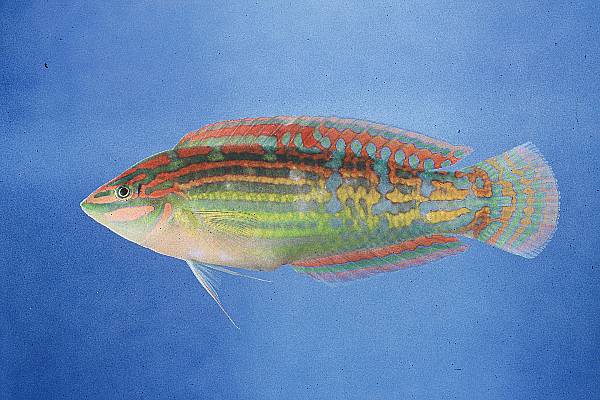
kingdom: Animalia
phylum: Chordata
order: Perciformes
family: Labridae
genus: Halichoeres
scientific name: Halichoeres cosmetus
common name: Adorned wrasse
